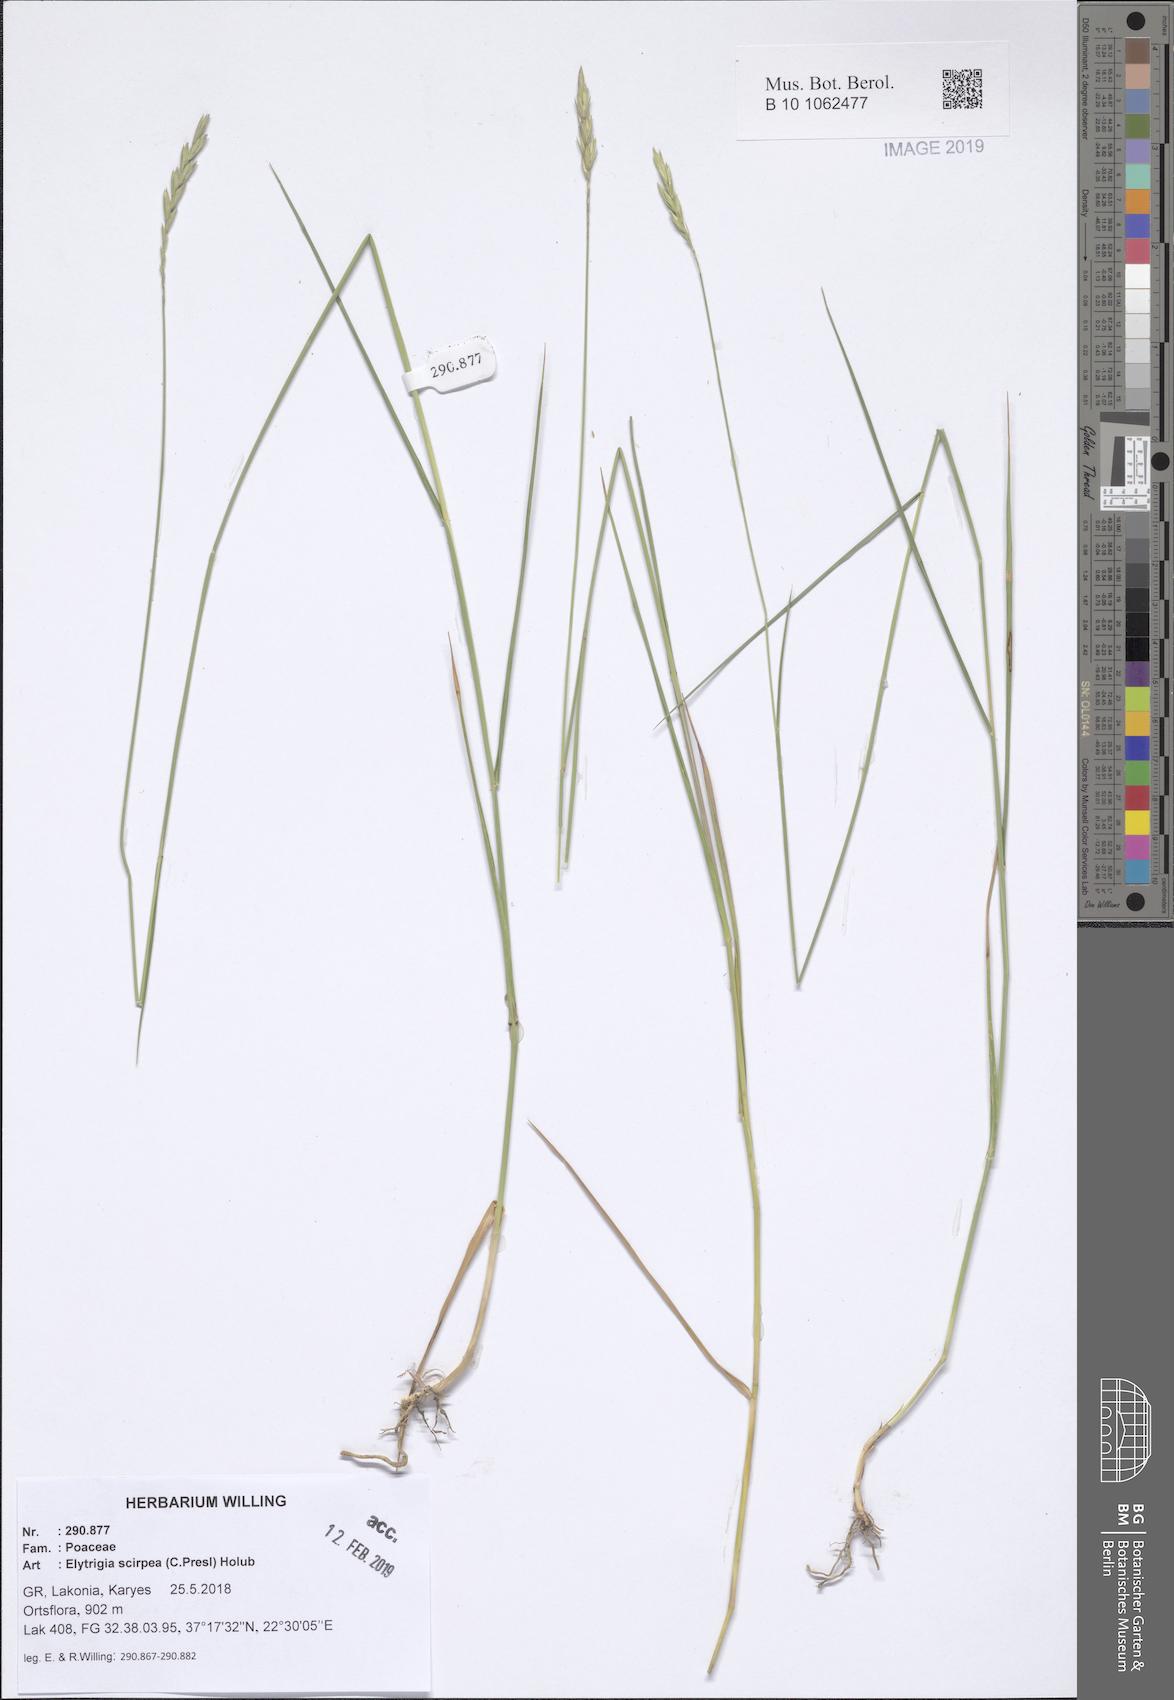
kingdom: Plantae
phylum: Tracheophyta
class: Liliopsida
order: Poales
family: Poaceae
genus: Thinopyrum
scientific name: Thinopyrum elongatum
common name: Tall wheatgrass
